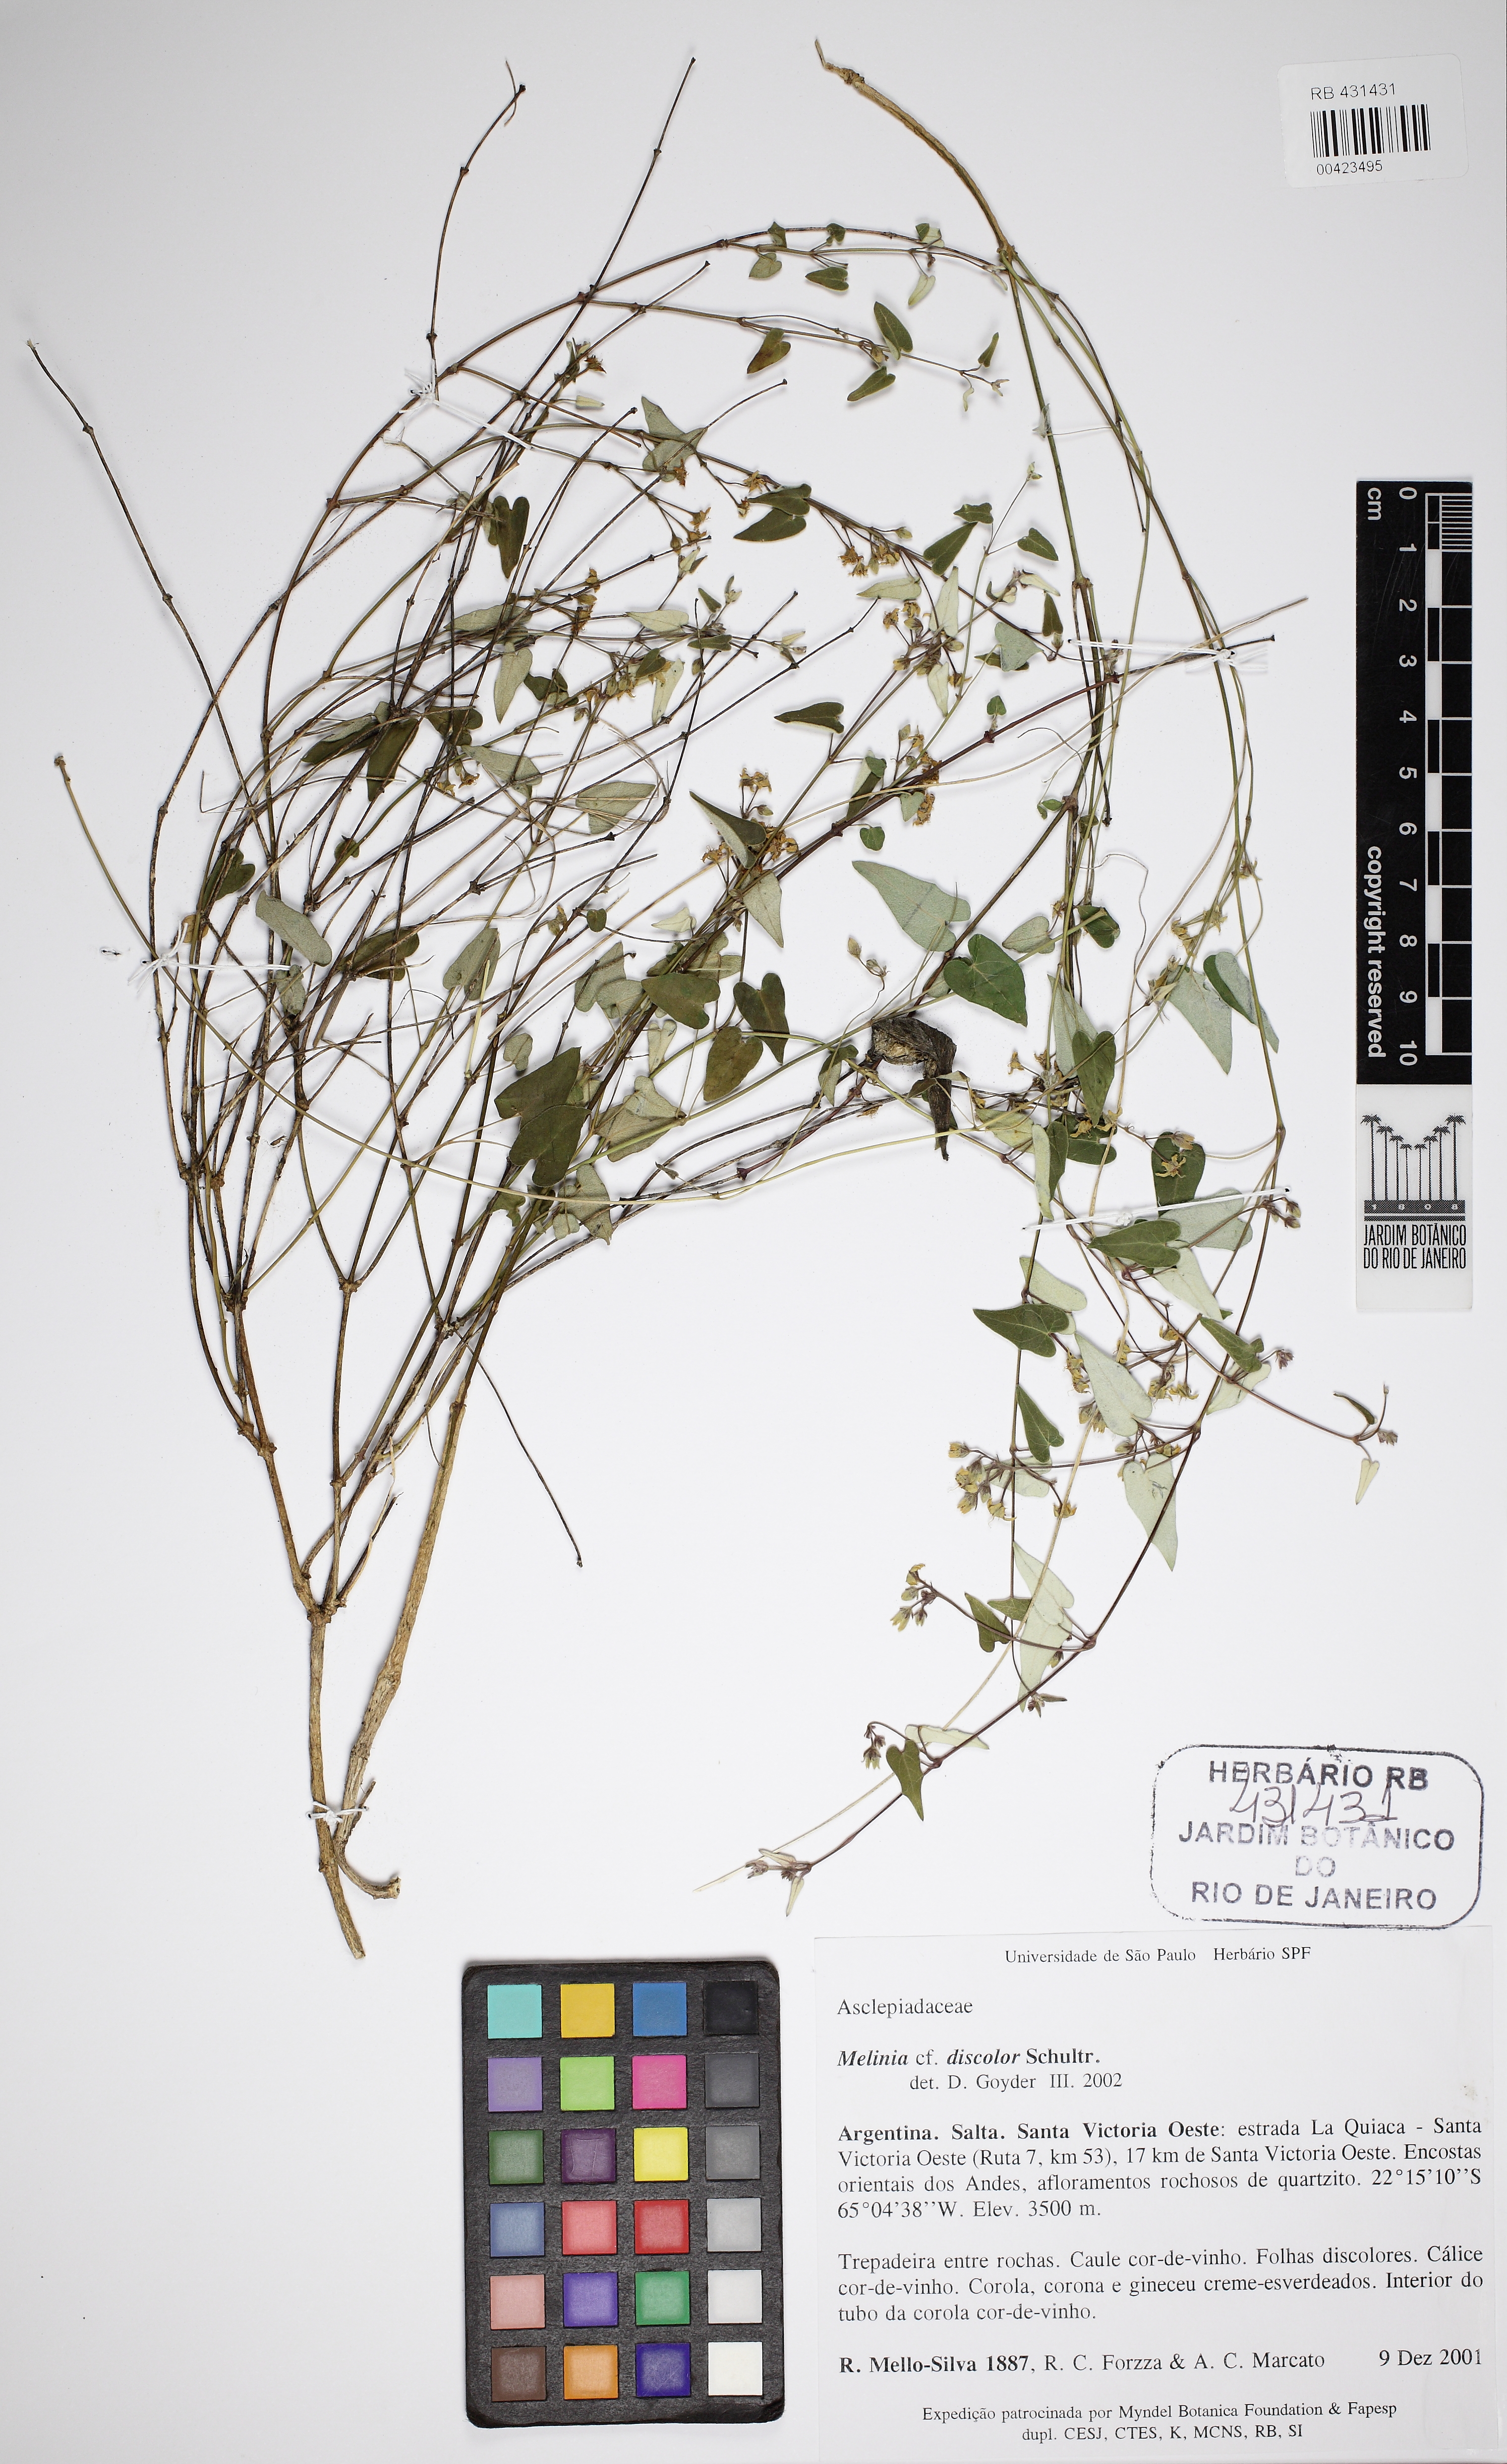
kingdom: Plantae
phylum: Tracheophyta
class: Magnoliopsida
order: Gentianales
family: Apocynaceae
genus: Philibertia
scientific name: Philibertia discolor
